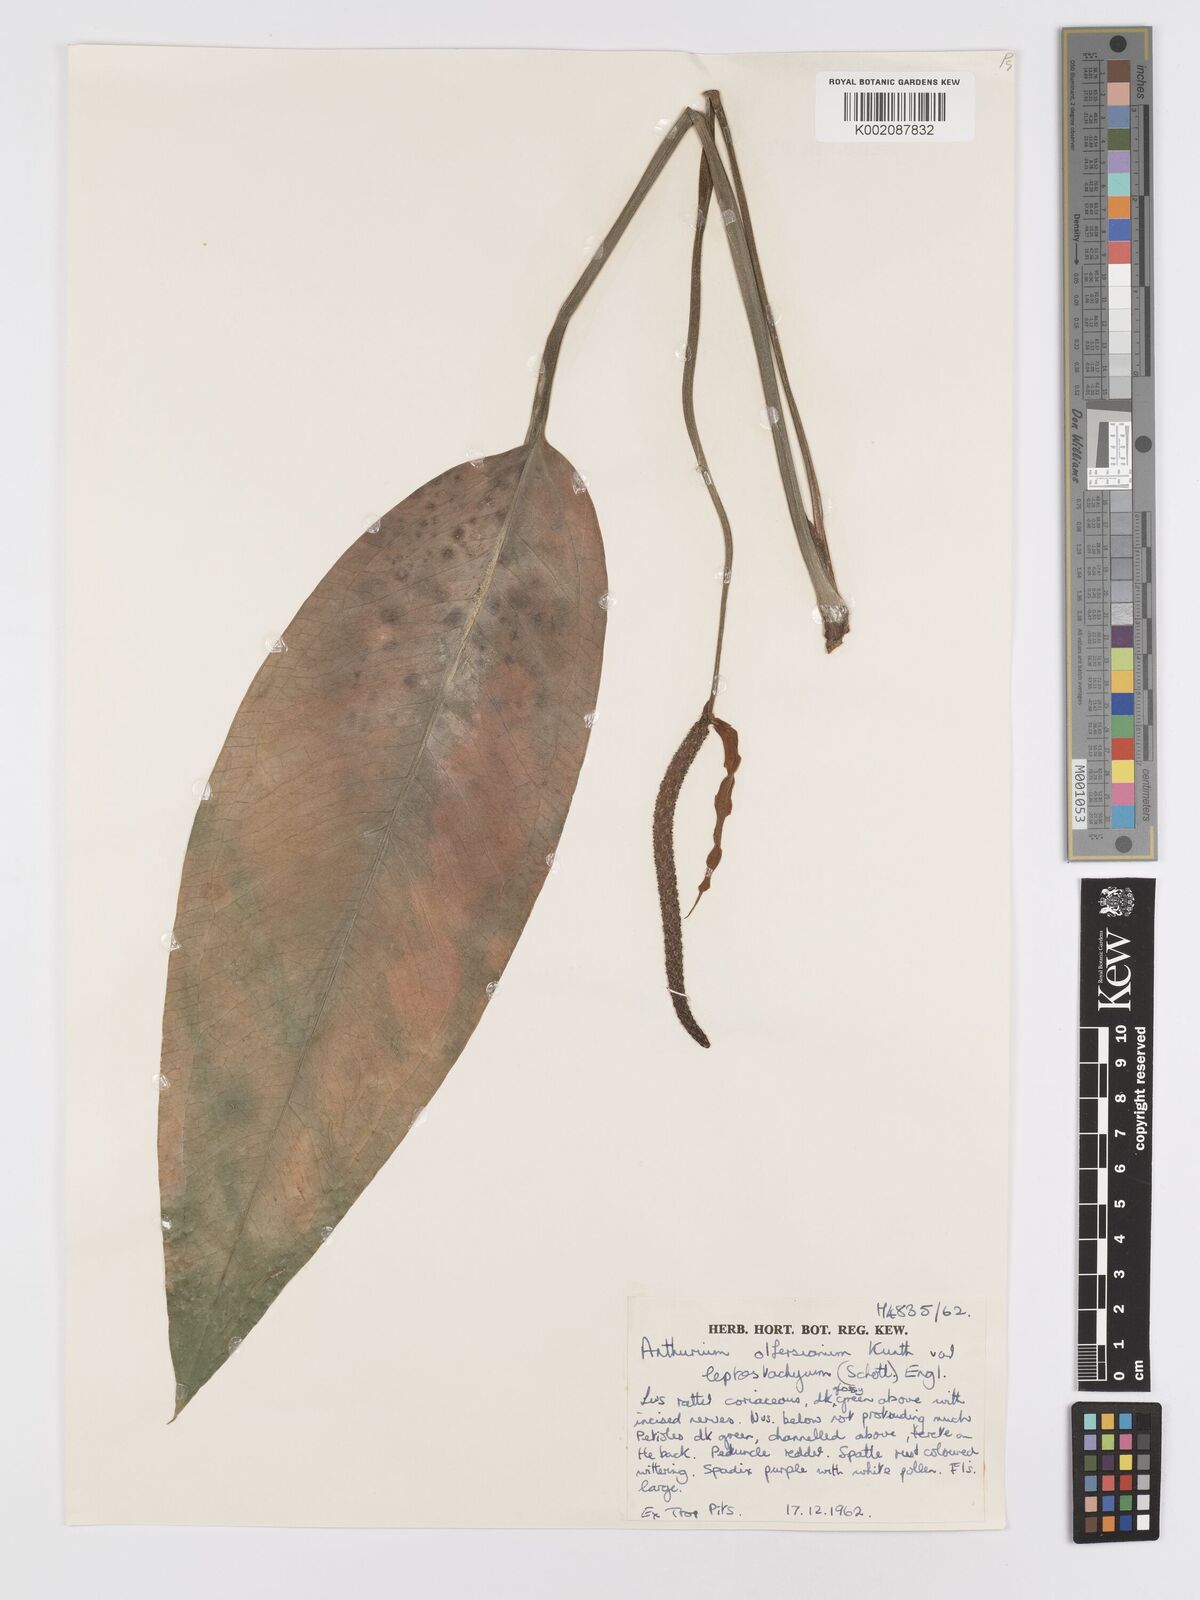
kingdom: Plantae
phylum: Tracheophyta
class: Liliopsida
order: Alismatales
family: Araceae
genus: Anthurium
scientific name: Anthurium intermedium
